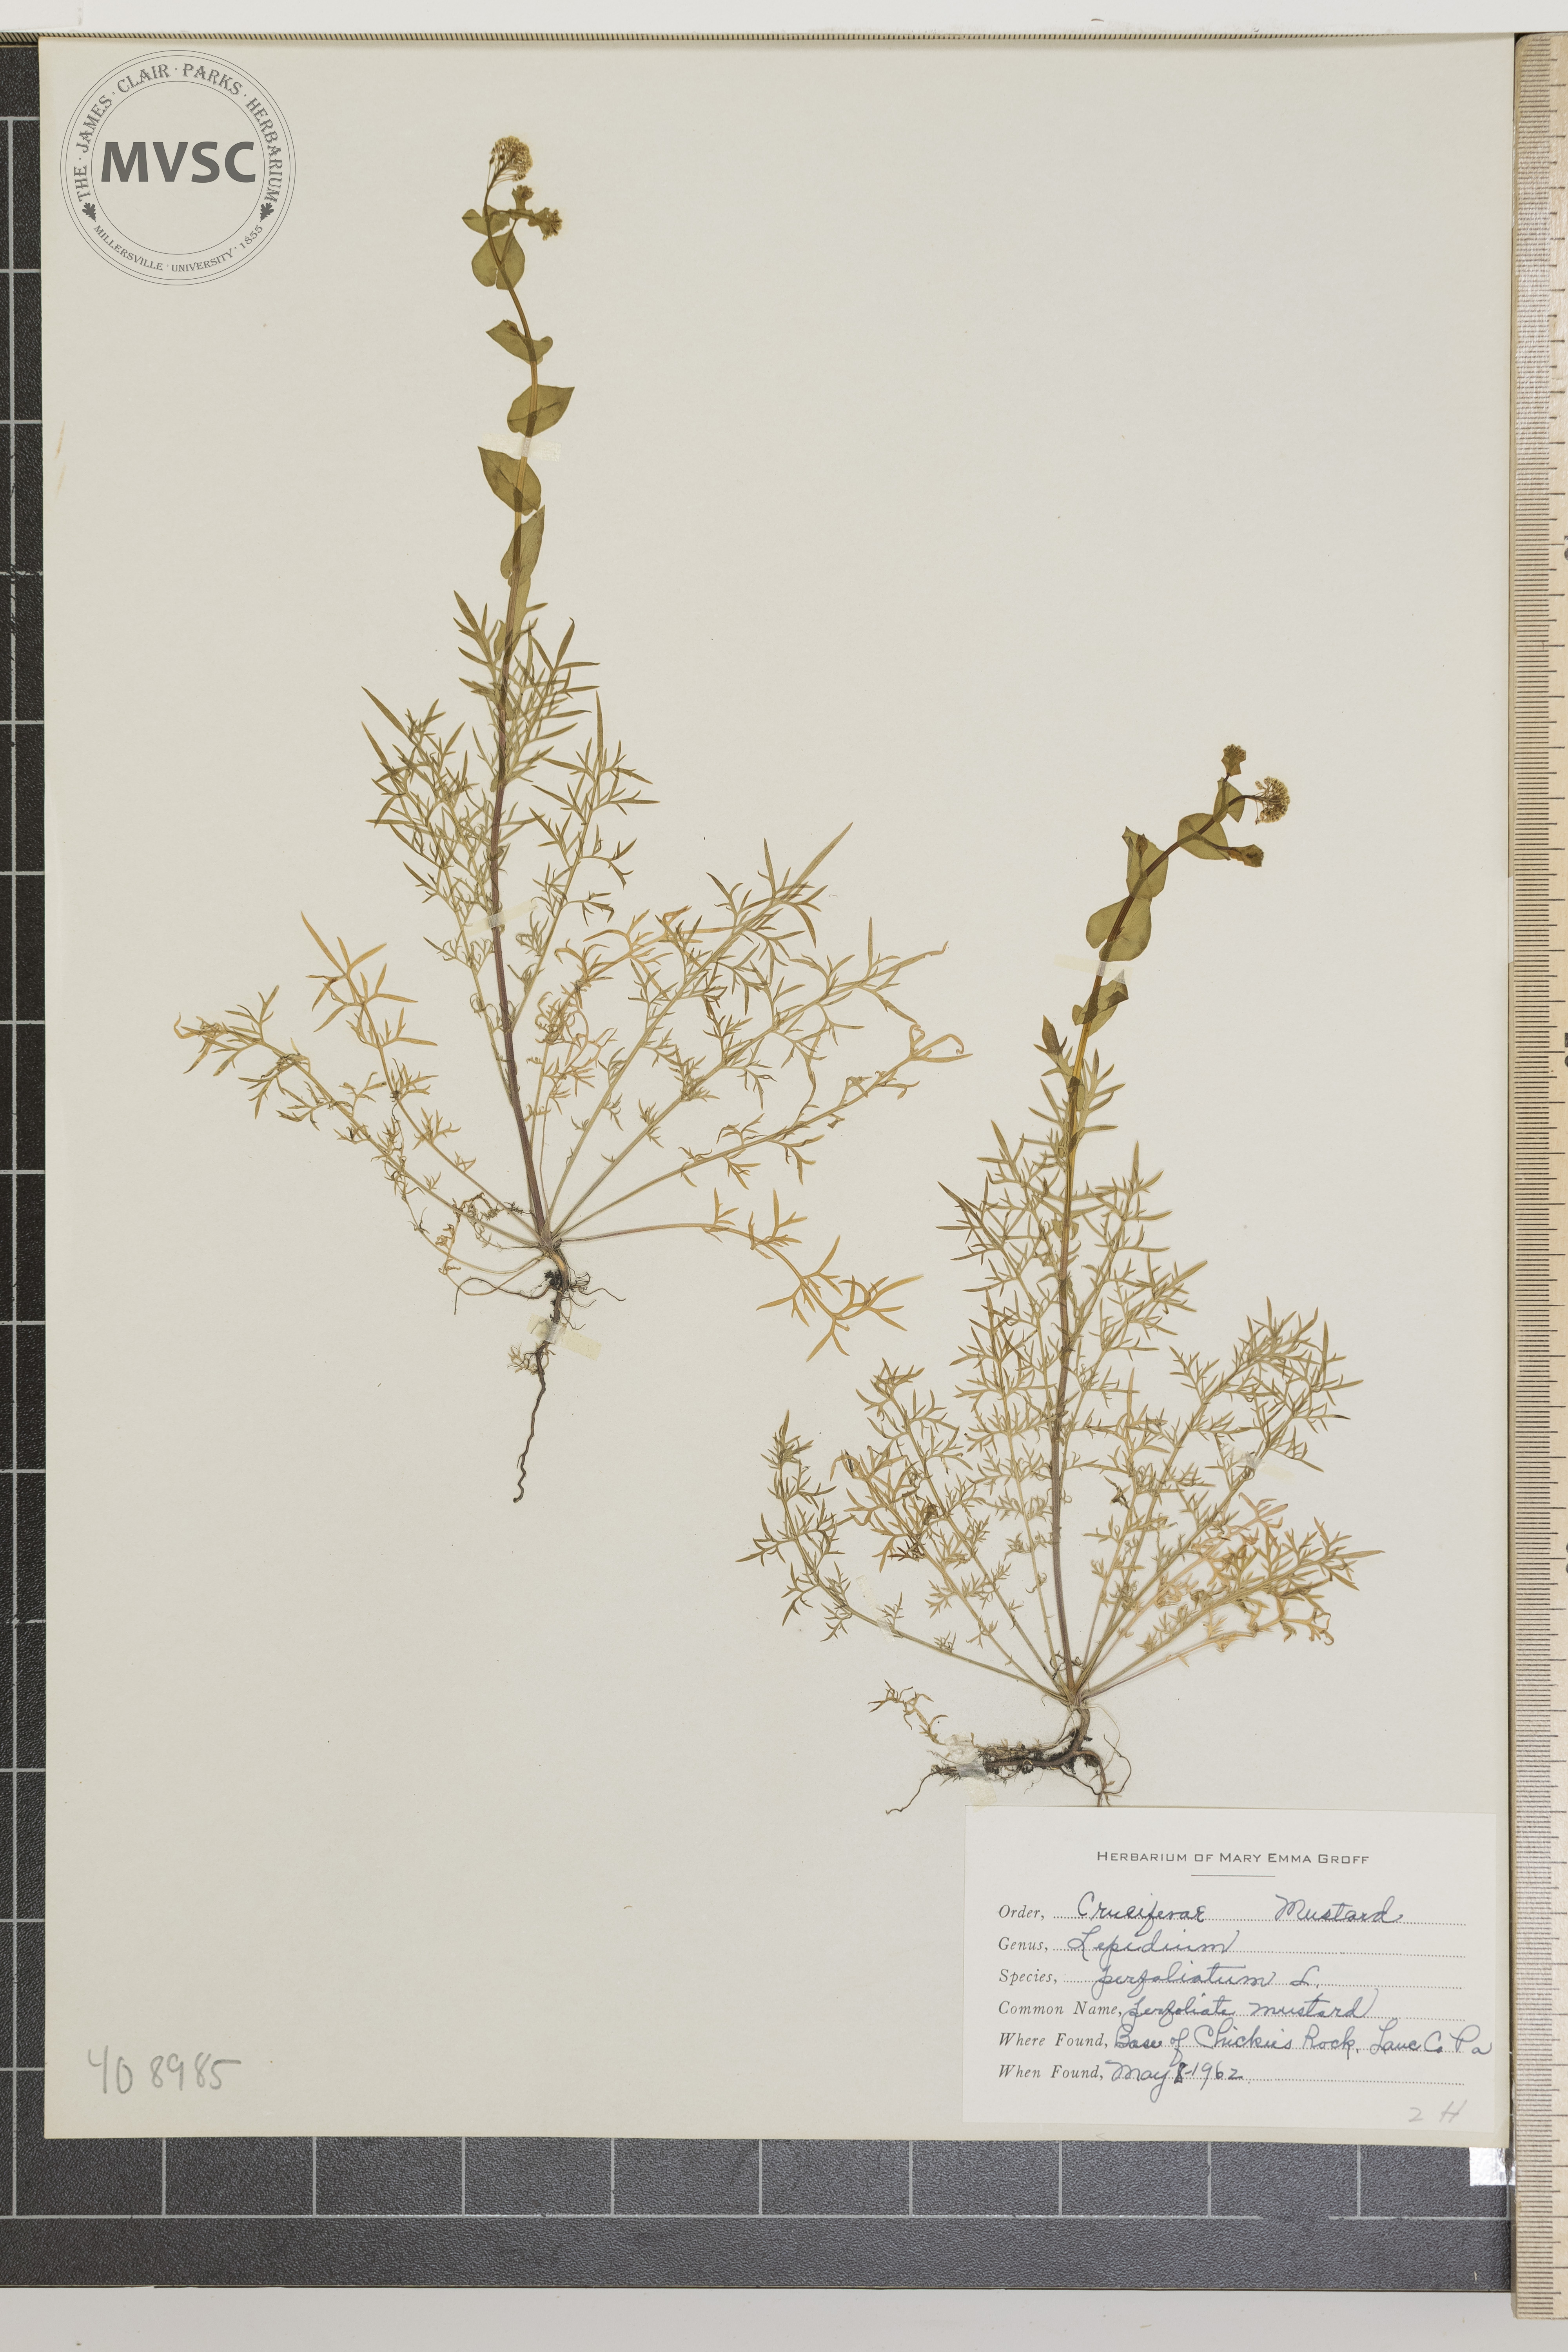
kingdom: Plantae
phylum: Tracheophyta
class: Magnoliopsida
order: Brassicales
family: Brassicaceae
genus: Lepidium
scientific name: Lepidium perfoliatum
